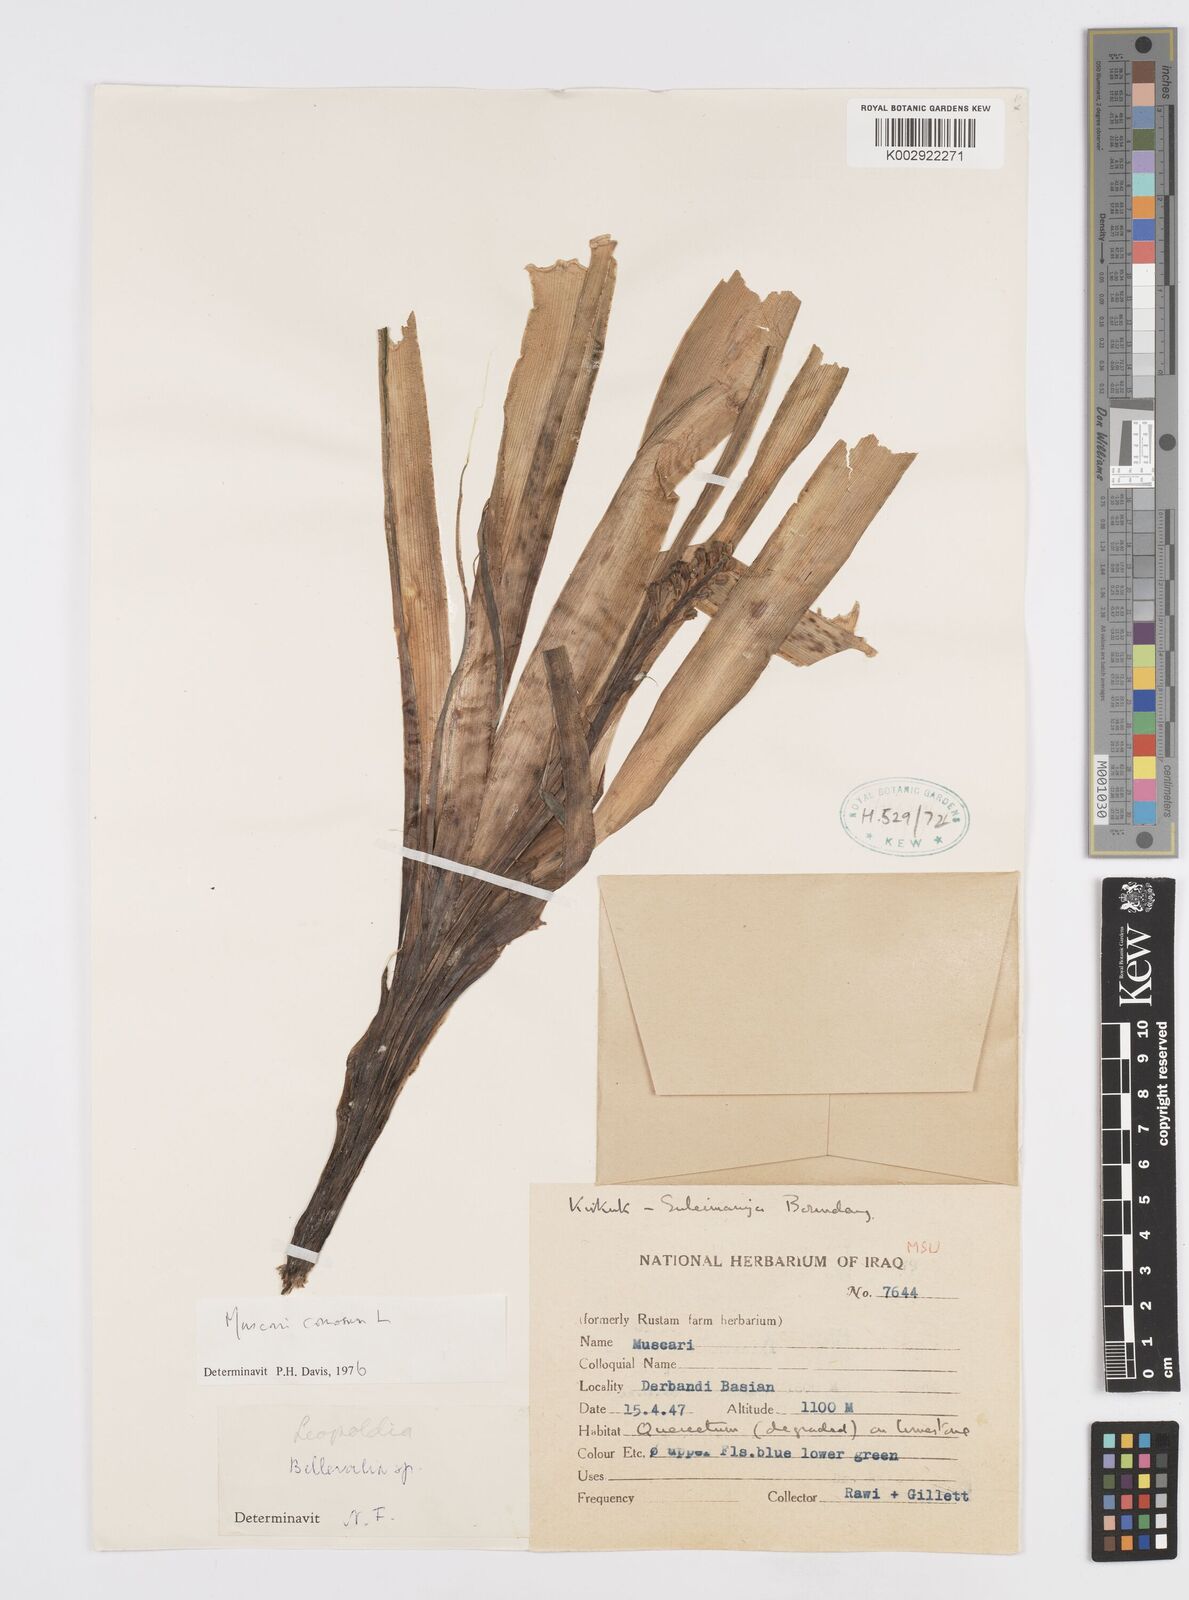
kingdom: Plantae
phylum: Tracheophyta
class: Liliopsida
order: Asparagales
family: Asparagaceae
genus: Muscari
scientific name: Muscari comosum
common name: Tassel hyacinth
